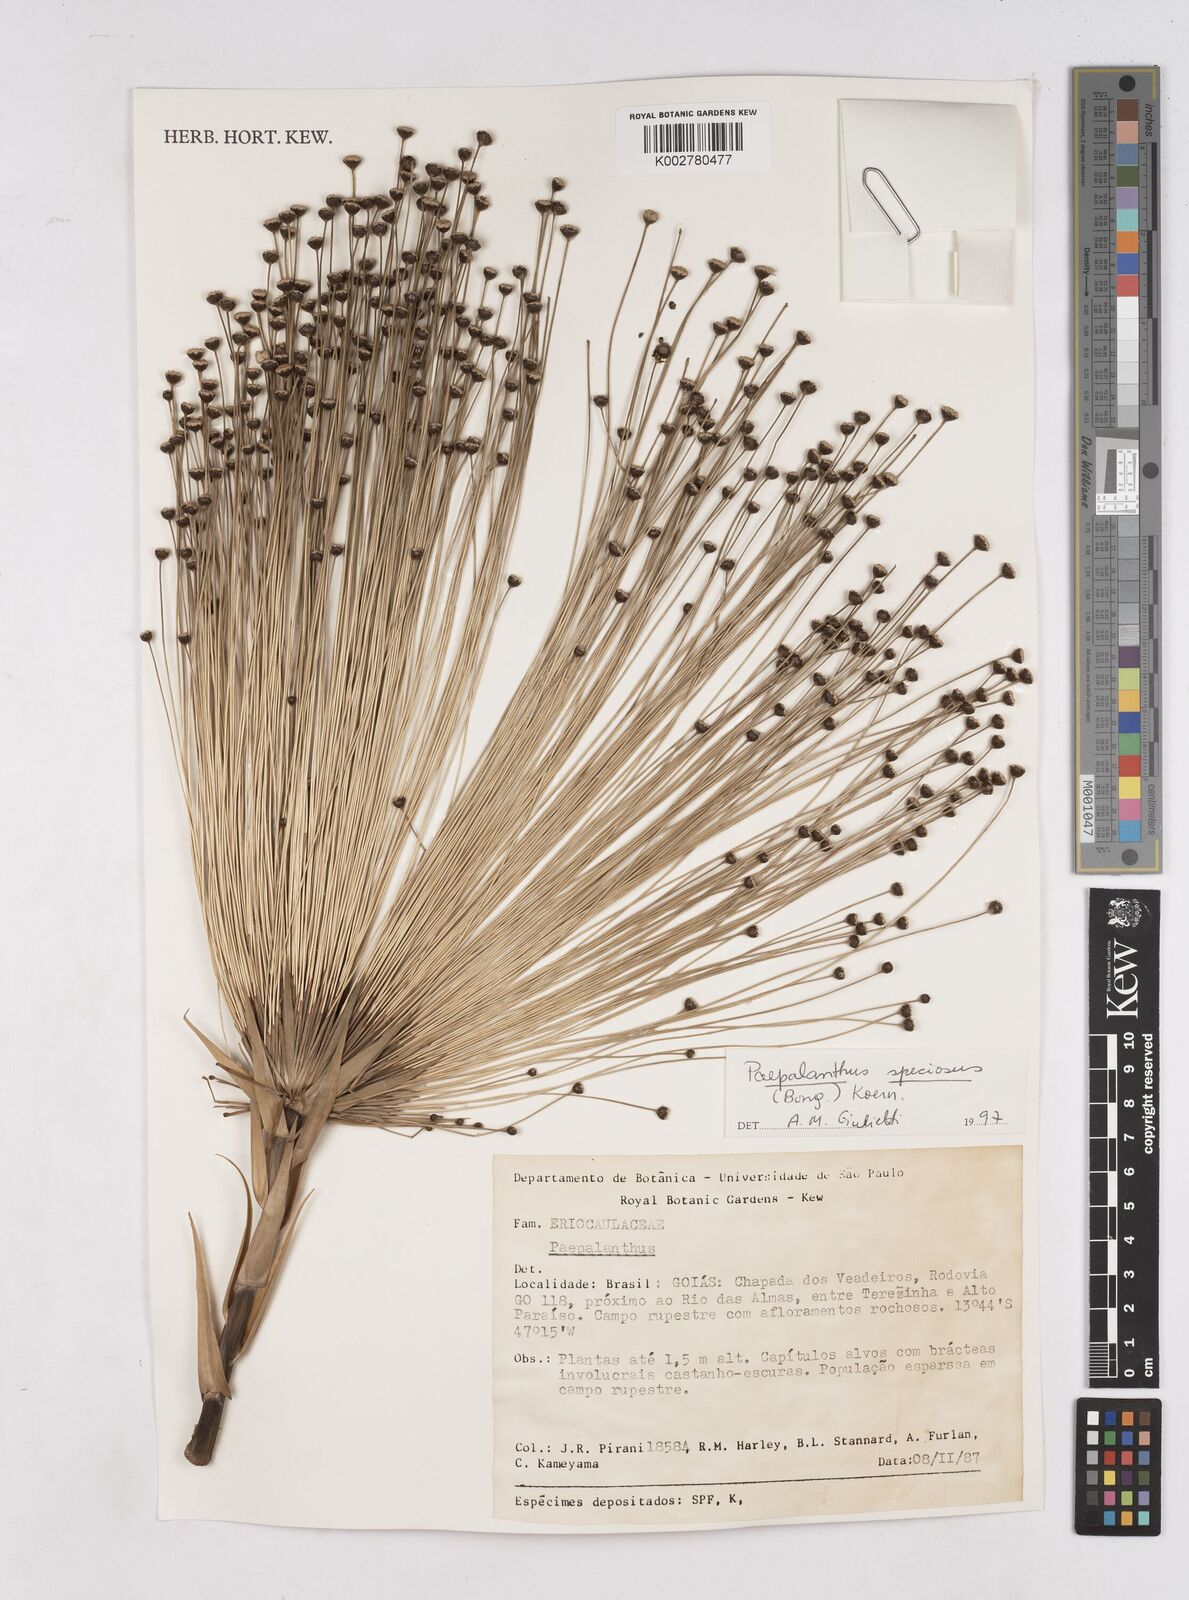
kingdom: Plantae
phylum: Tracheophyta
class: Liliopsida
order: Poales
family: Eriocaulaceae
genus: Paepalanthus
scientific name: Paepalanthus chiquitensis
